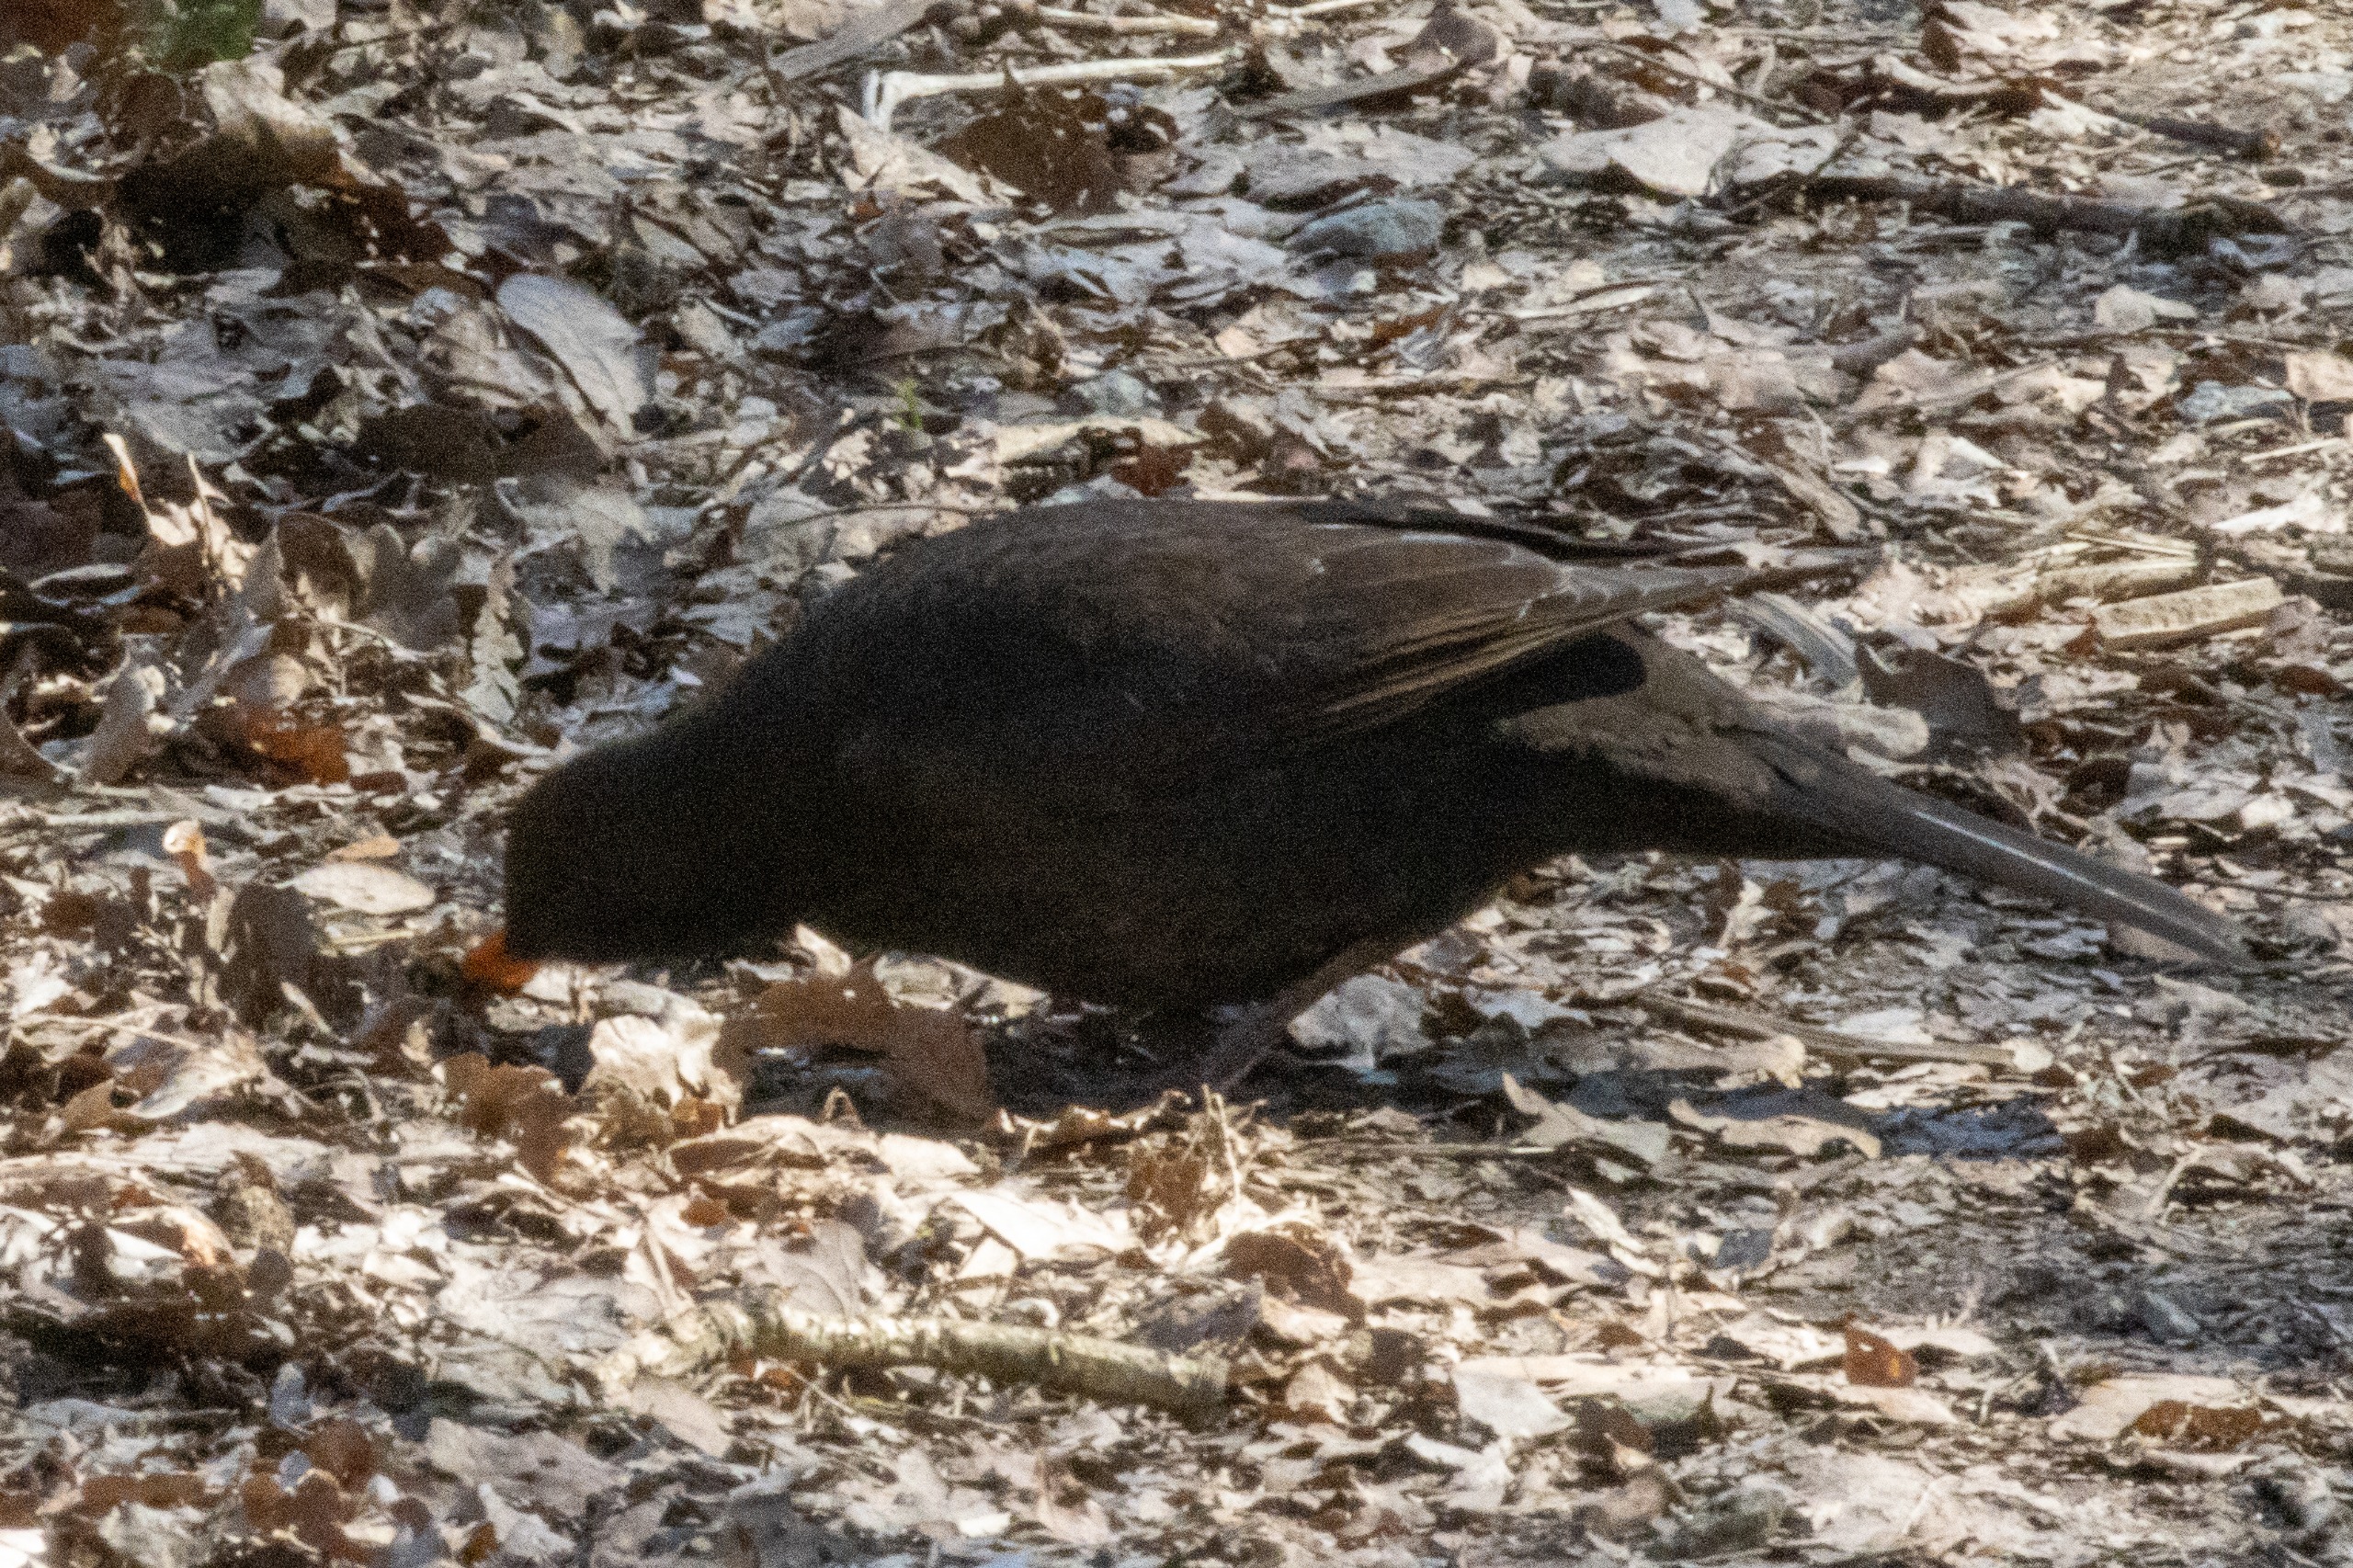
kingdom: Animalia
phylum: Chordata
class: Aves
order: Passeriformes
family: Turdidae
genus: Turdus
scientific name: Turdus merula
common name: Solsort
